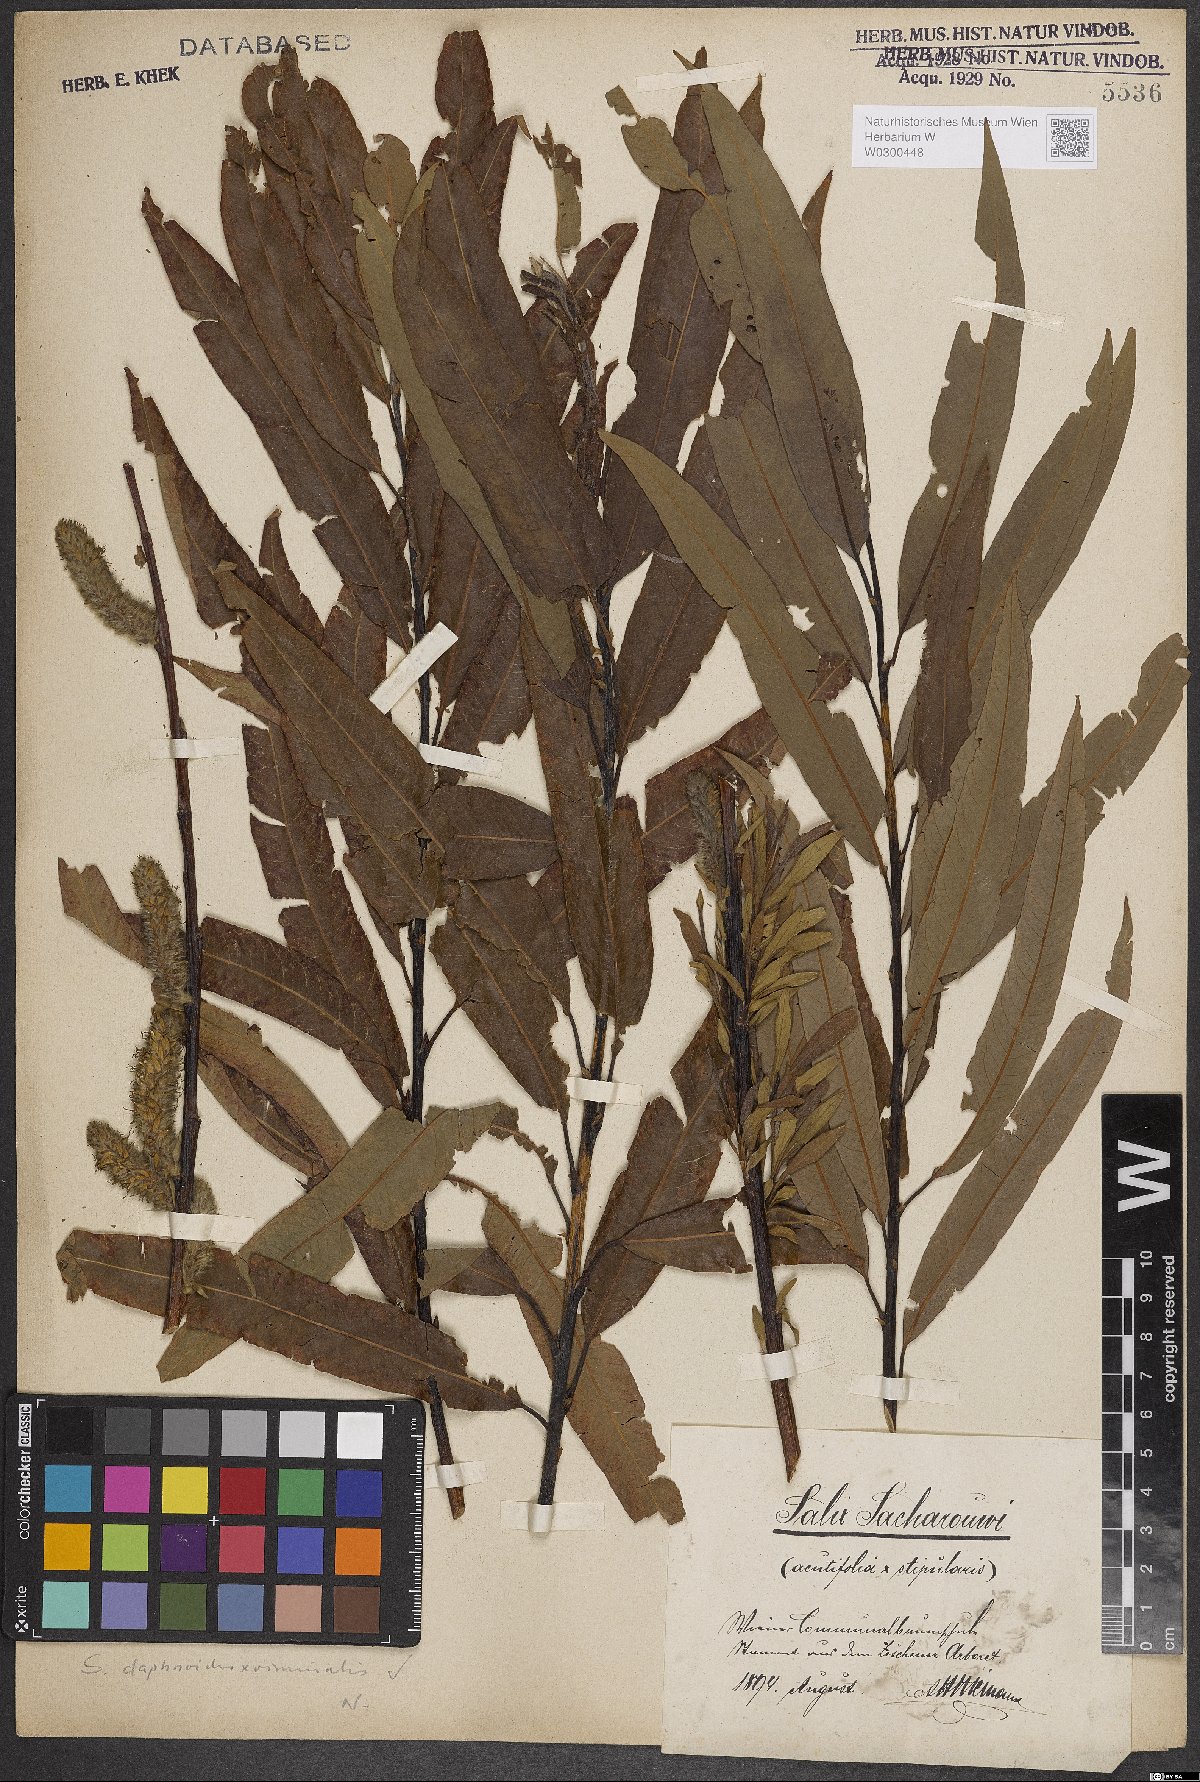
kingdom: Plantae
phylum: Tracheophyta
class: Magnoliopsida
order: Malpighiales
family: Salicaceae
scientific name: Salicaceae
